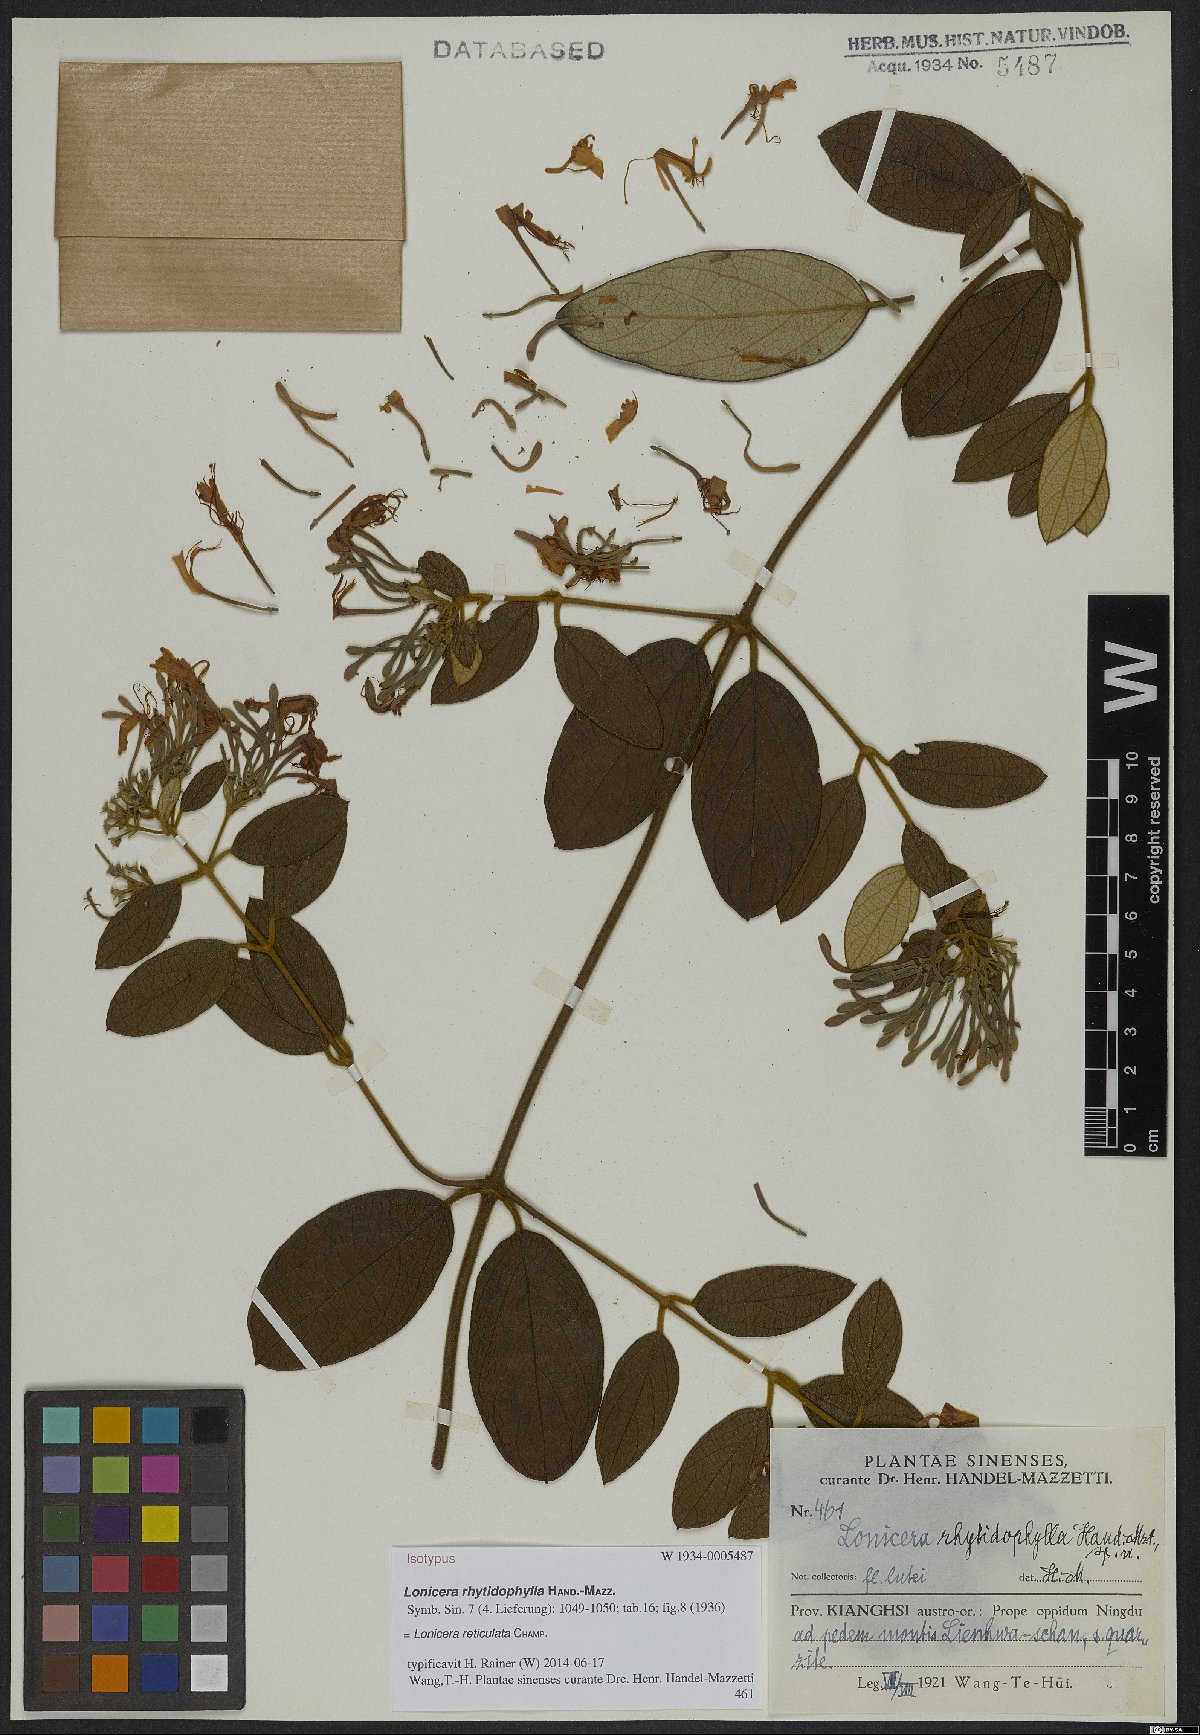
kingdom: Plantae
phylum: Tracheophyta
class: Magnoliopsida
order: Dipsacales
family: Caprifoliaceae
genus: Lonicera
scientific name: Lonicera reticulata
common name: Grape honeysuckle
